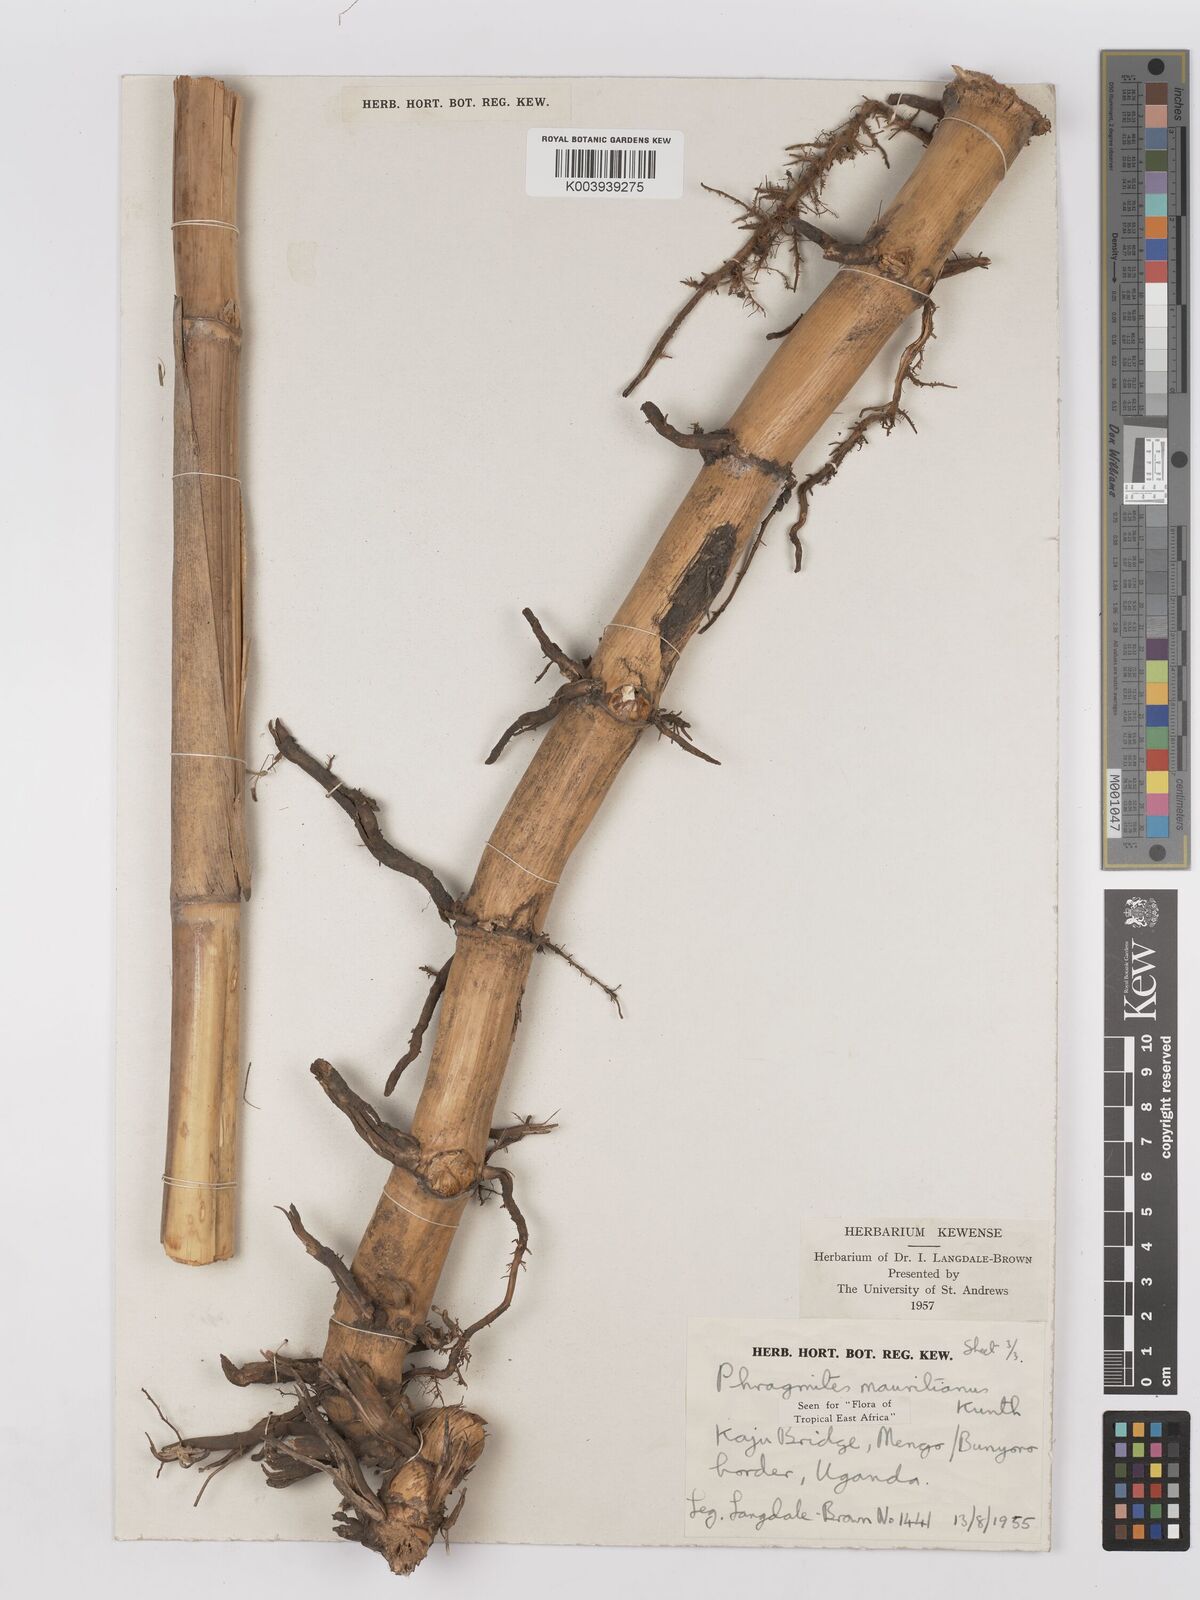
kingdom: Plantae
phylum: Tracheophyta
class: Liliopsida
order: Poales
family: Poaceae
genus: Phragmites
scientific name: Phragmites mauritianus
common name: Reed grass
